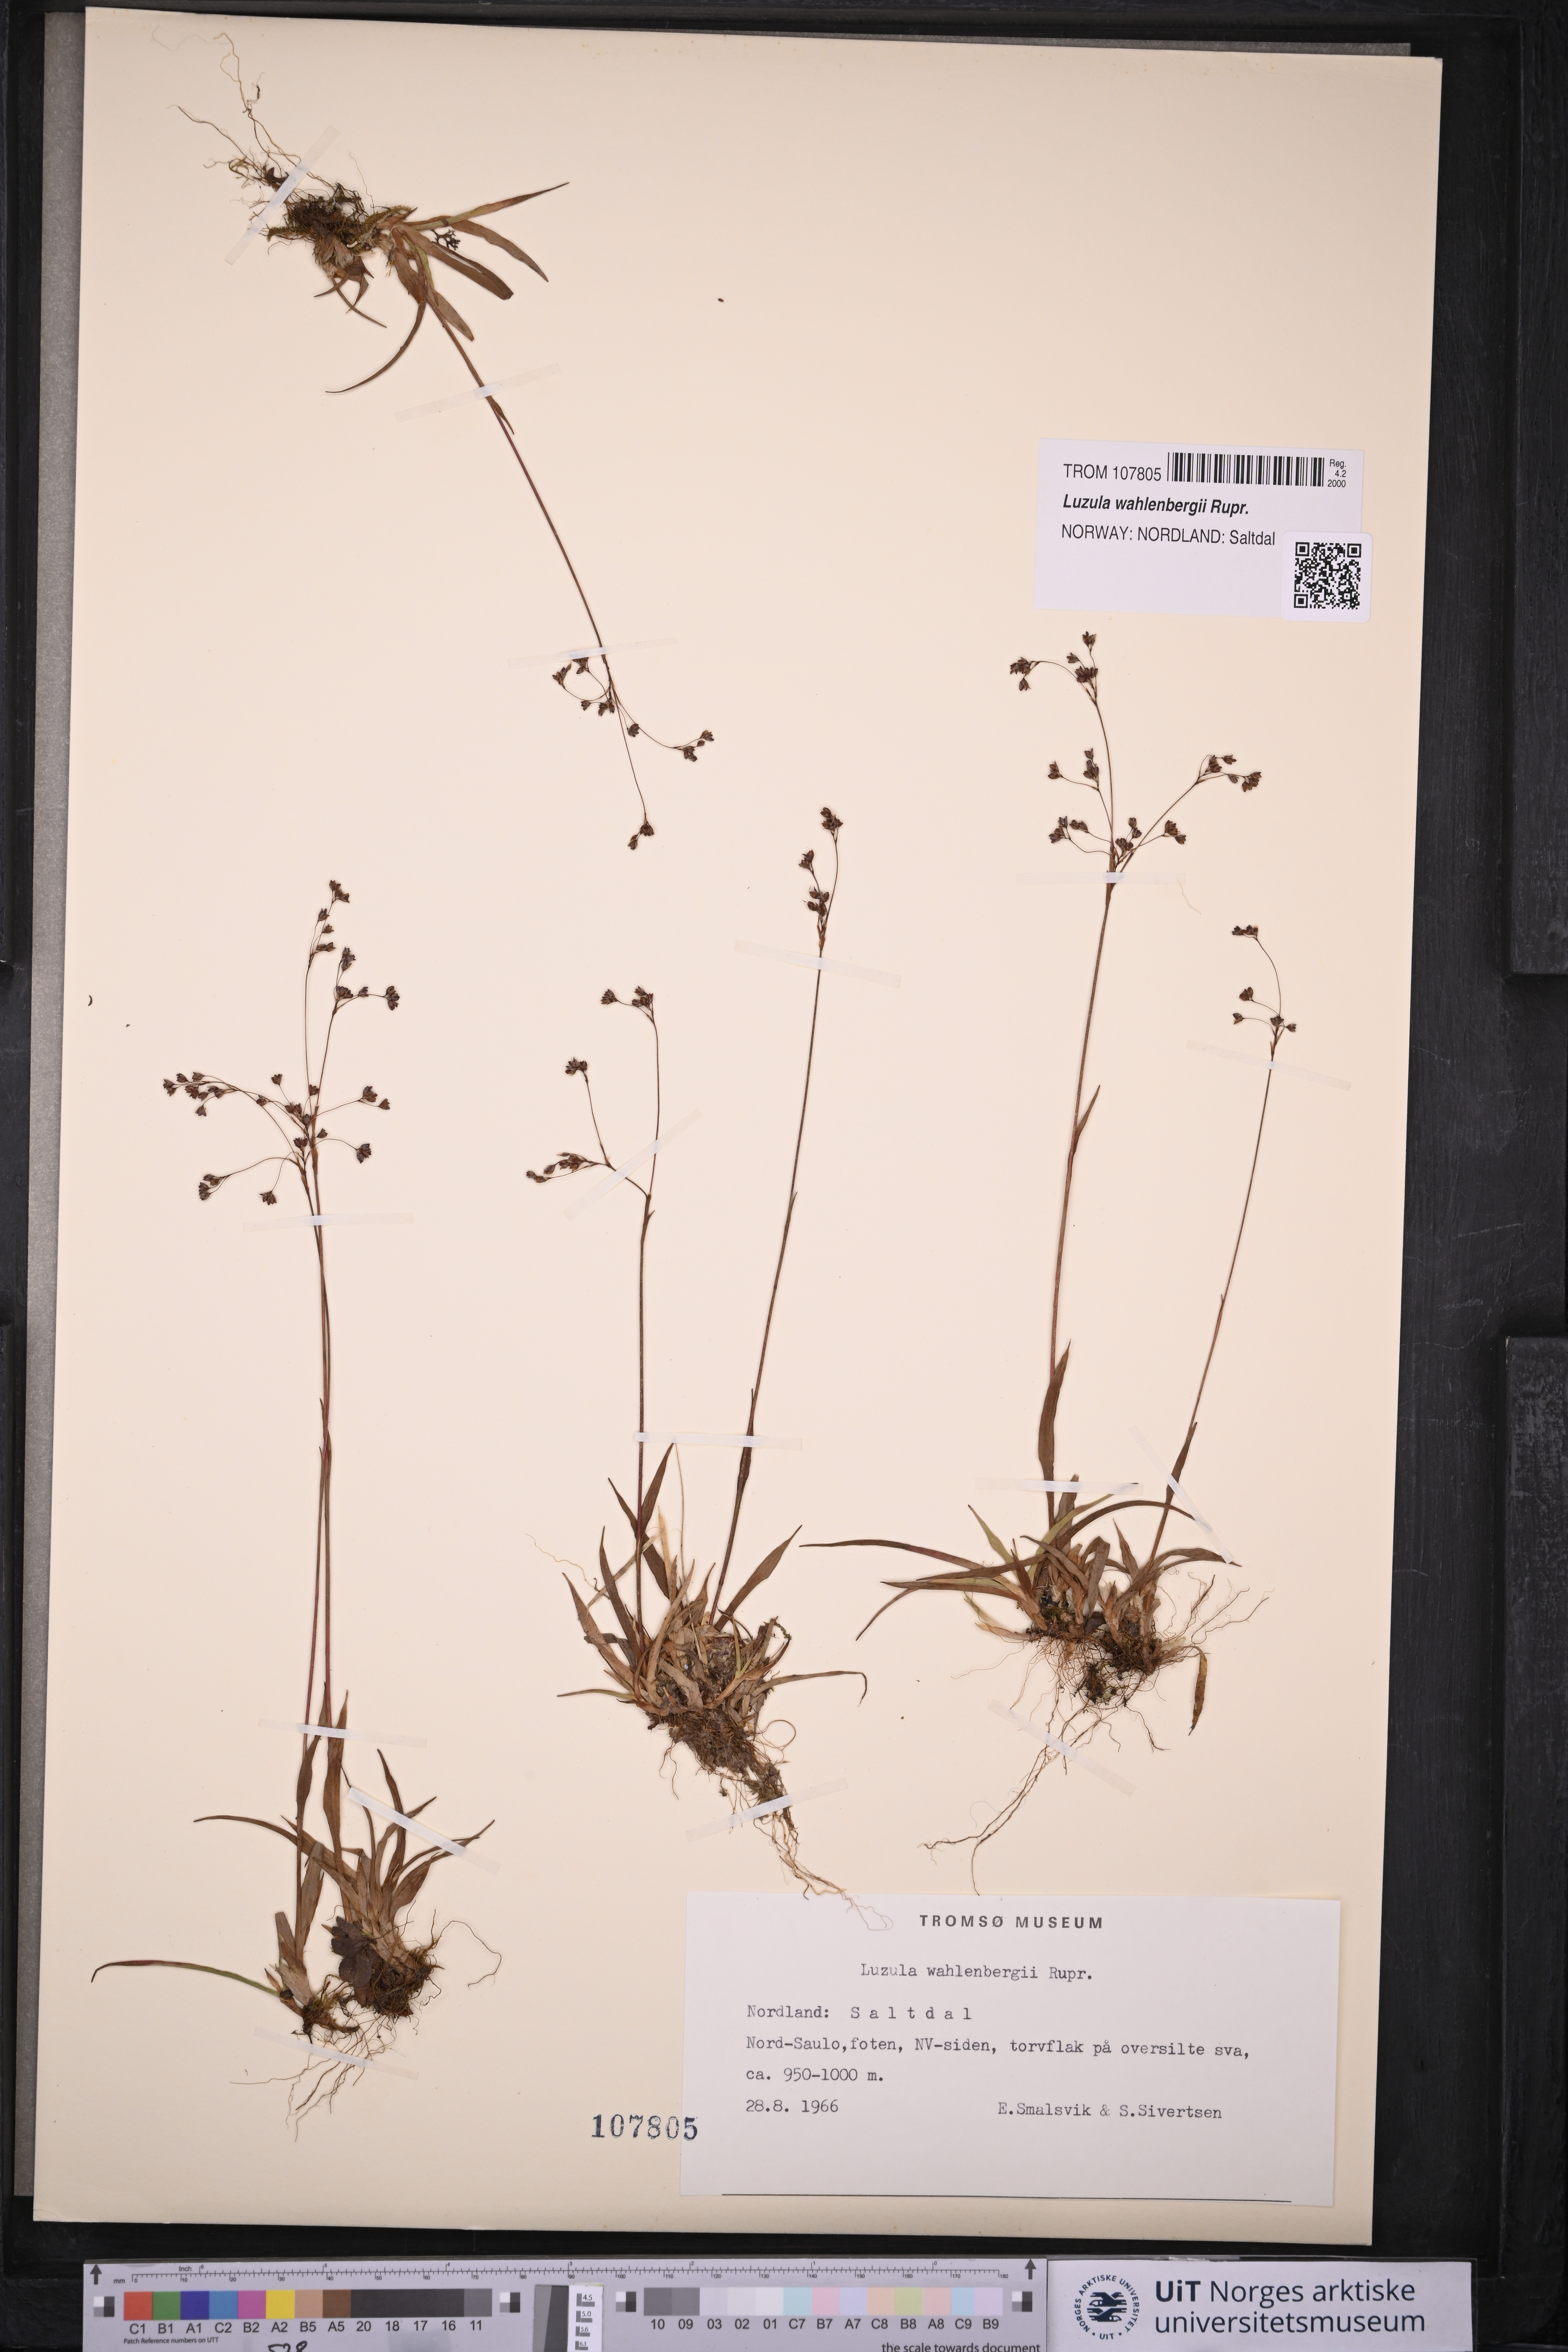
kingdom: Plantae
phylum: Tracheophyta
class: Liliopsida
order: Poales
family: Juncaceae
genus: Luzula
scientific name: Luzula wahlenbergii
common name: Wahlenberg's wood-rush
